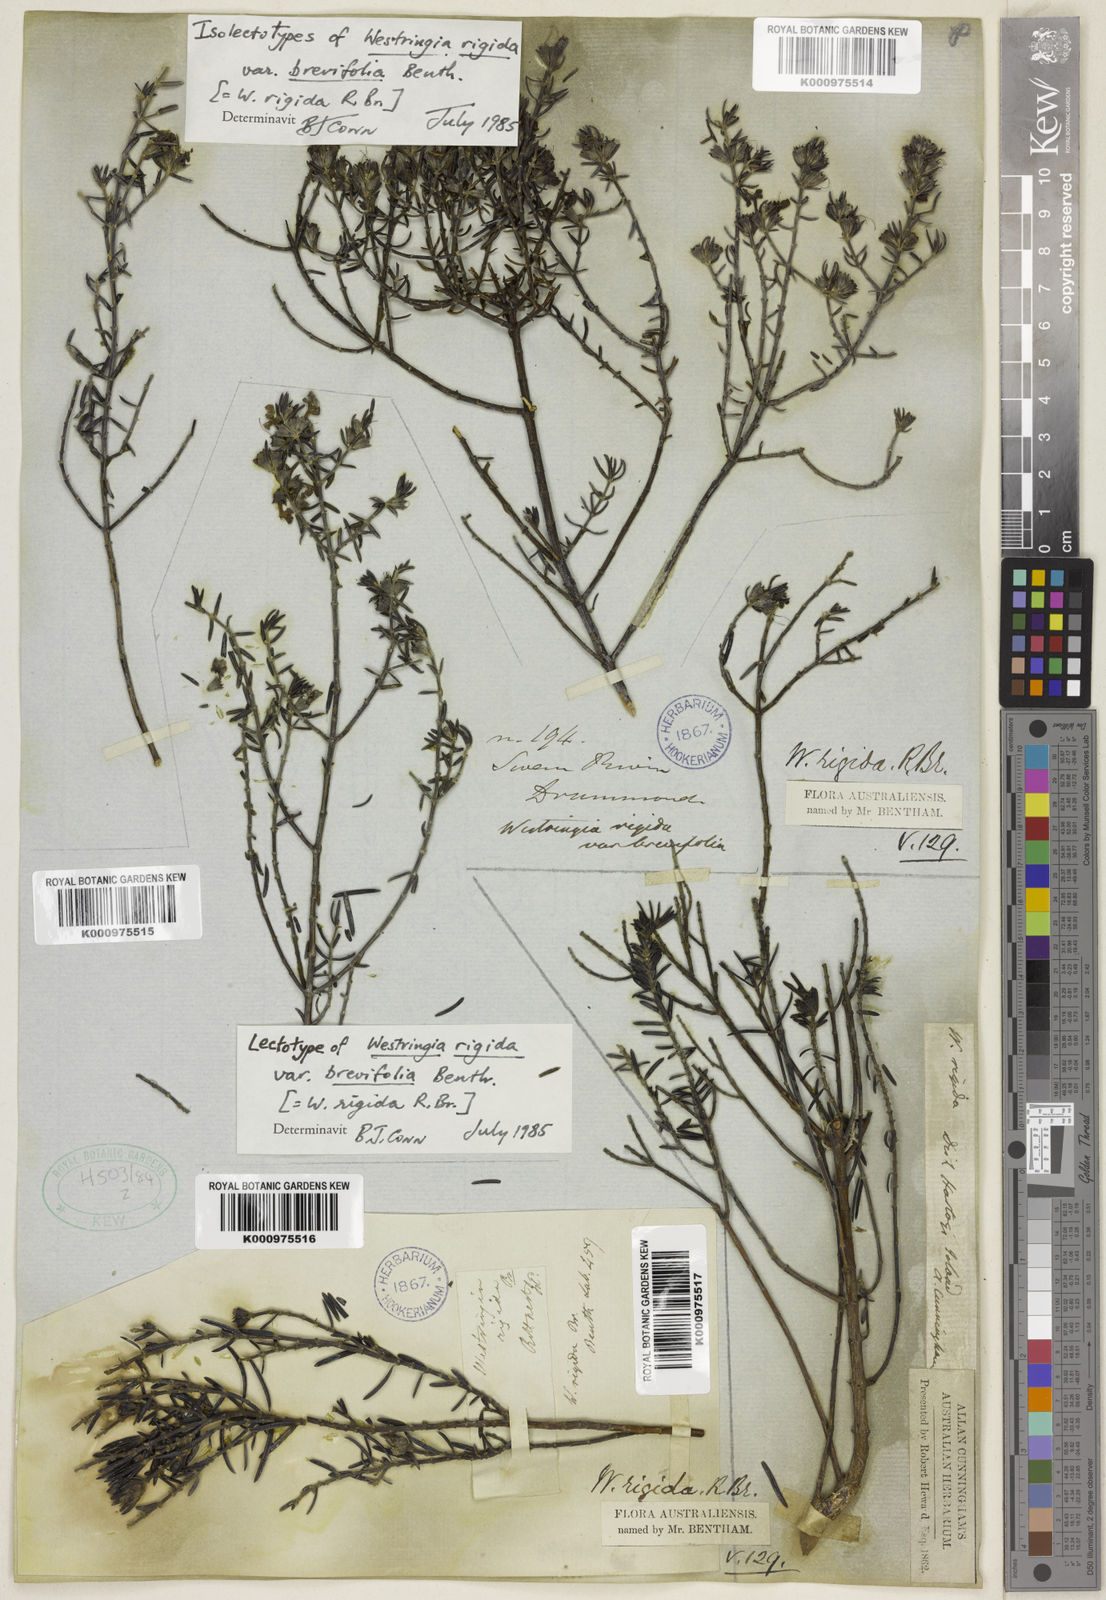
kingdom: Plantae
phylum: Tracheophyta
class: Magnoliopsida
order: Lamiales
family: Lamiaceae
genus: Westringia
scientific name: Westringia rigida
